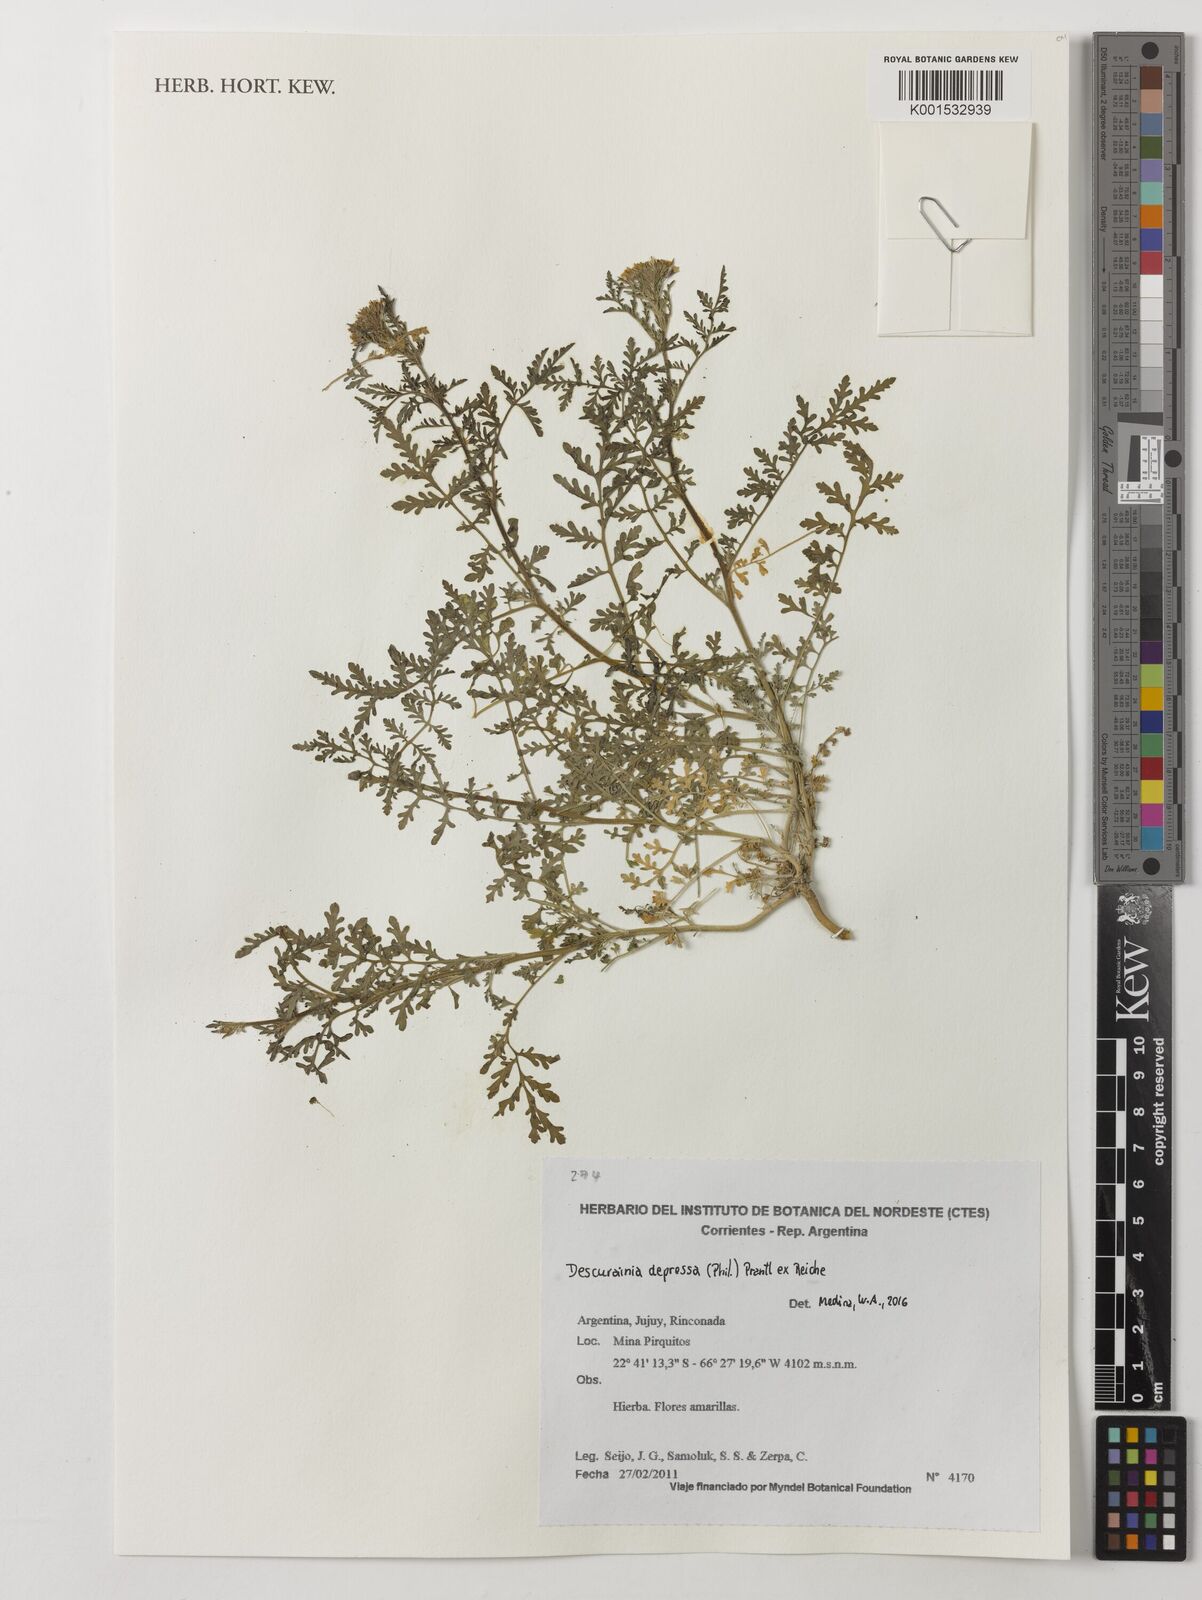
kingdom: Plantae
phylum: Tracheophyta
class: Magnoliopsida
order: Brassicales
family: Brassicaceae
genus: Descurainia
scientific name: Descurainia depressa
